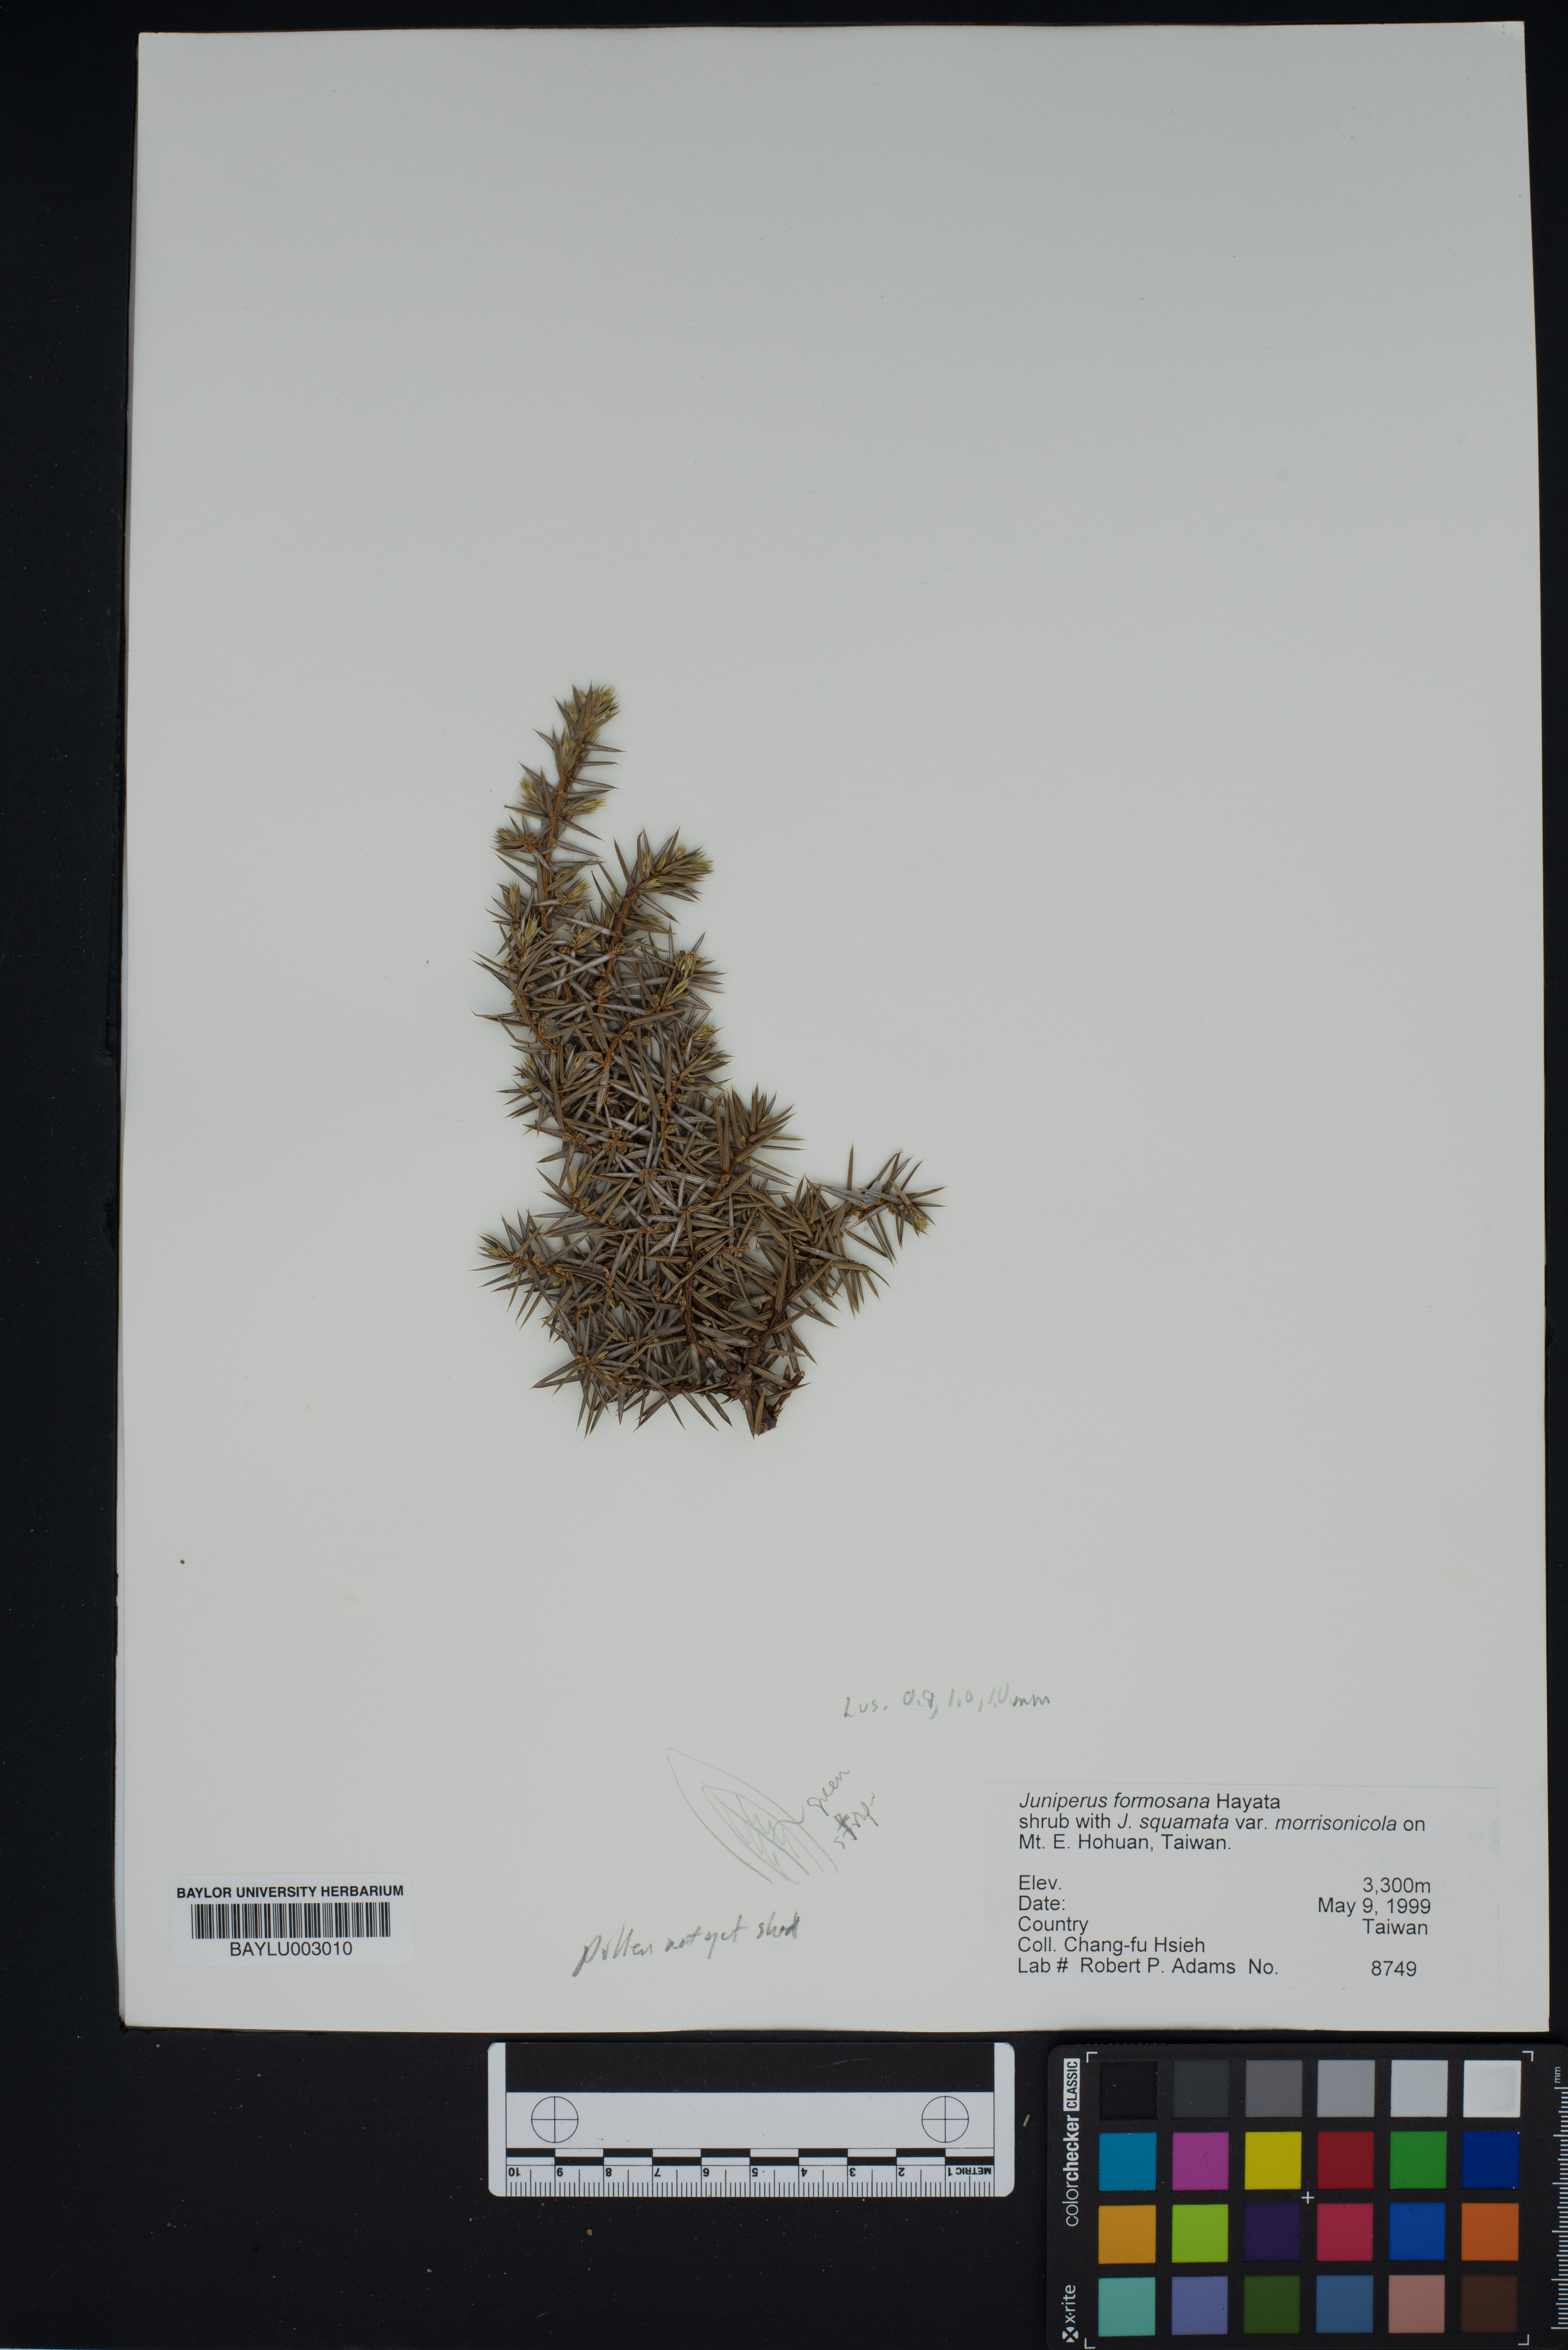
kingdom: Plantae
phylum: Tracheophyta
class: Pinopsida
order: Pinales
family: Cupressaceae
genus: Juniperus
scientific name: Juniperus formosana
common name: Formosan juniper
